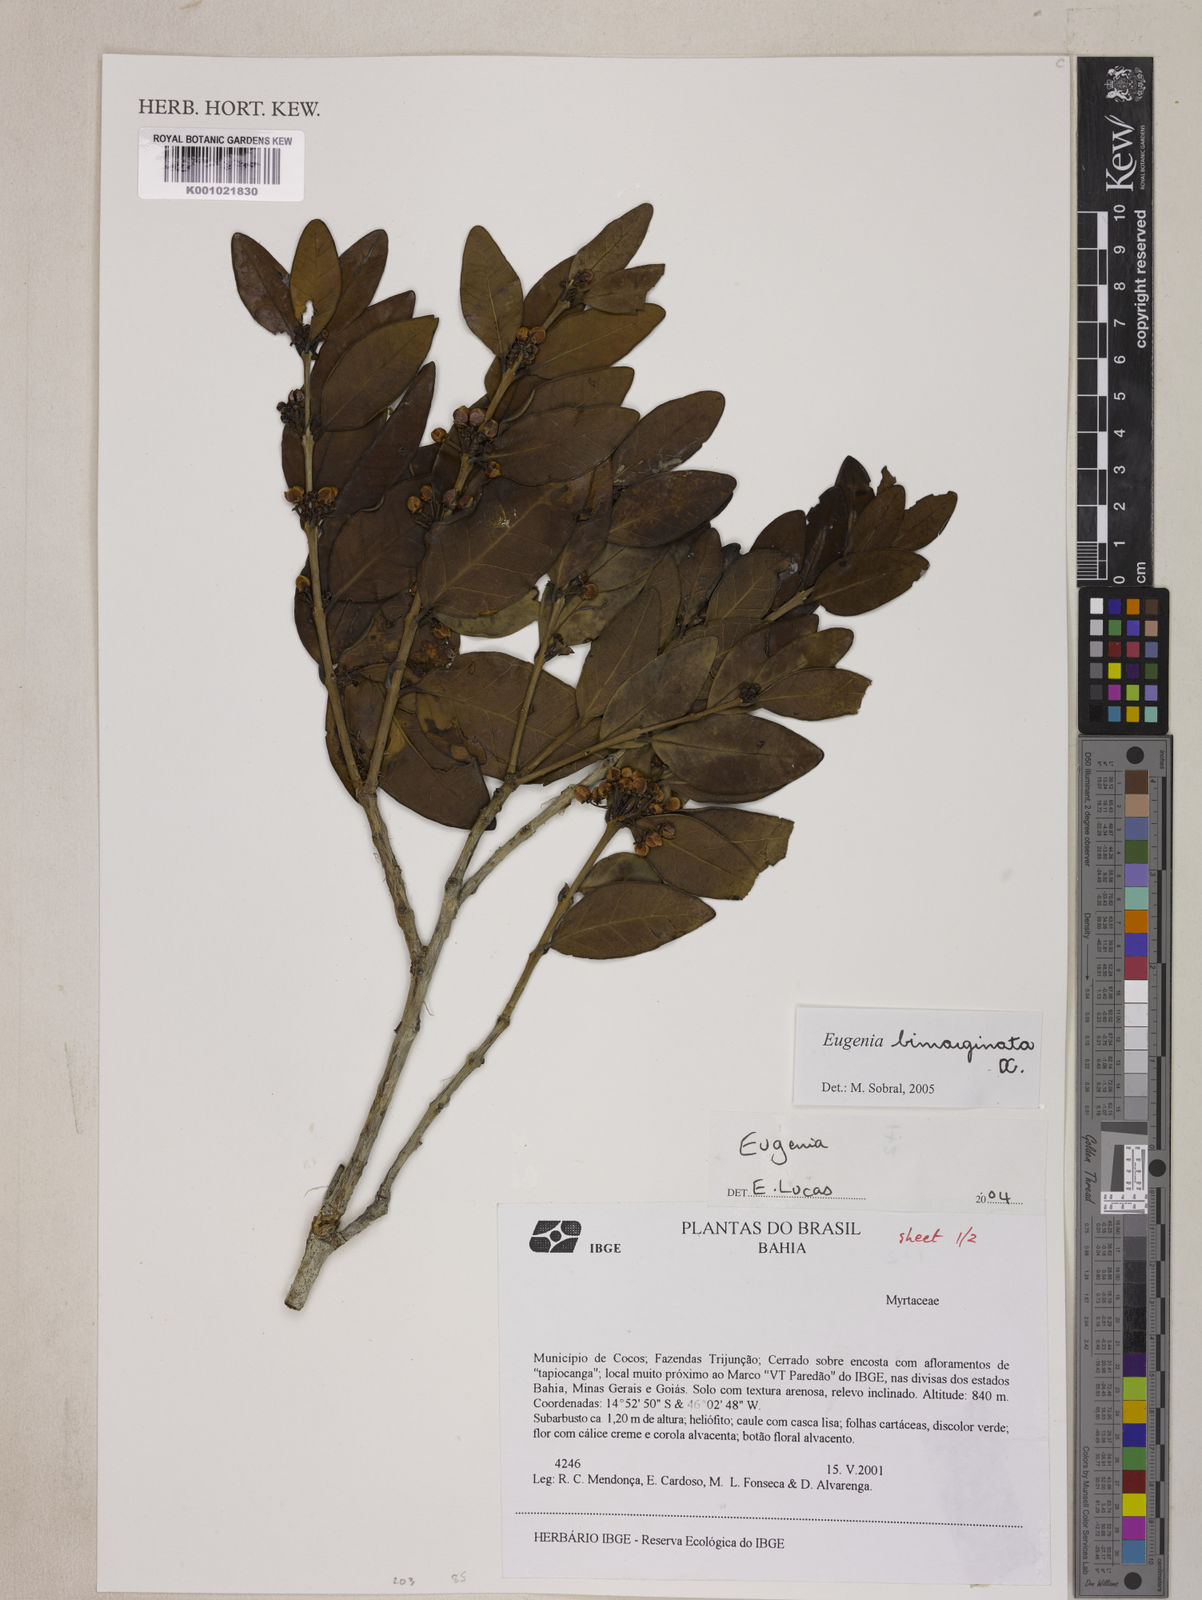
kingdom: Plantae
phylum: Tracheophyta
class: Magnoliopsida
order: Myrtales
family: Myrtaceae
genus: Eugenia
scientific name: Eugenia bimarginata
